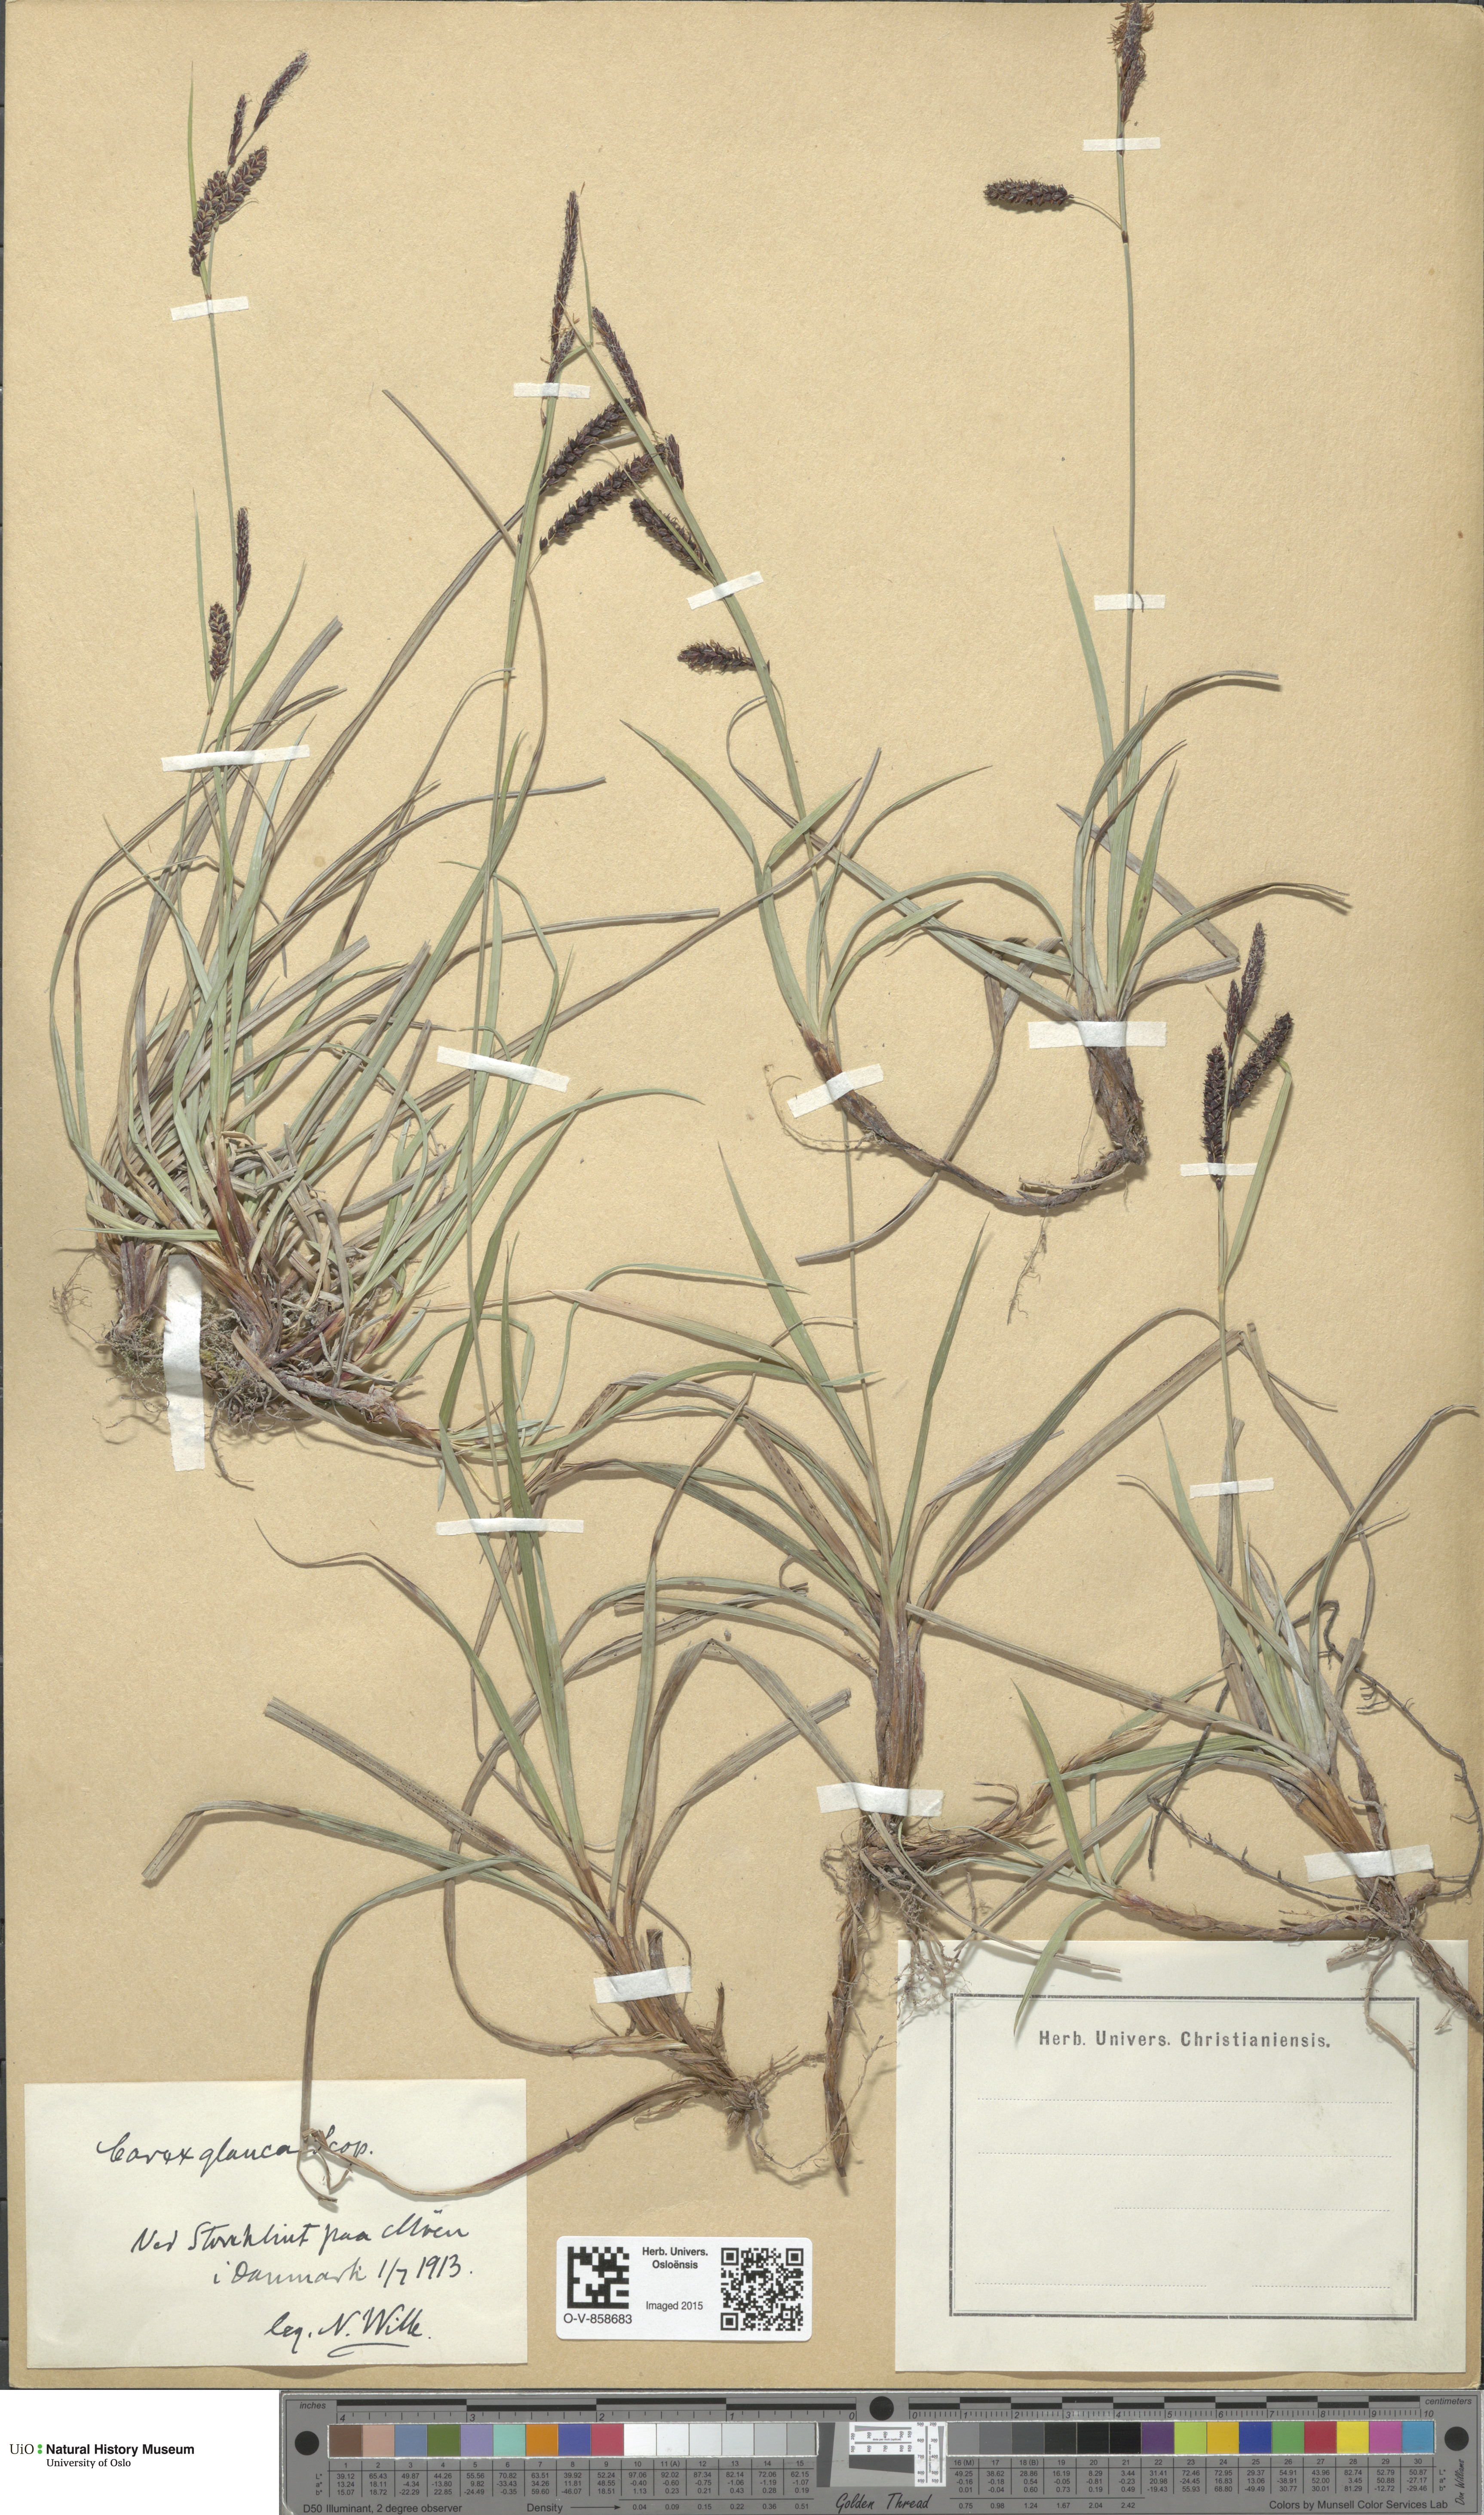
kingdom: Plantae
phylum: Tracheophyta
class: Liliopsida
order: Poales
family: Cyperaceae
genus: Carex
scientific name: Carex flacca
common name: Glaucous sedge
